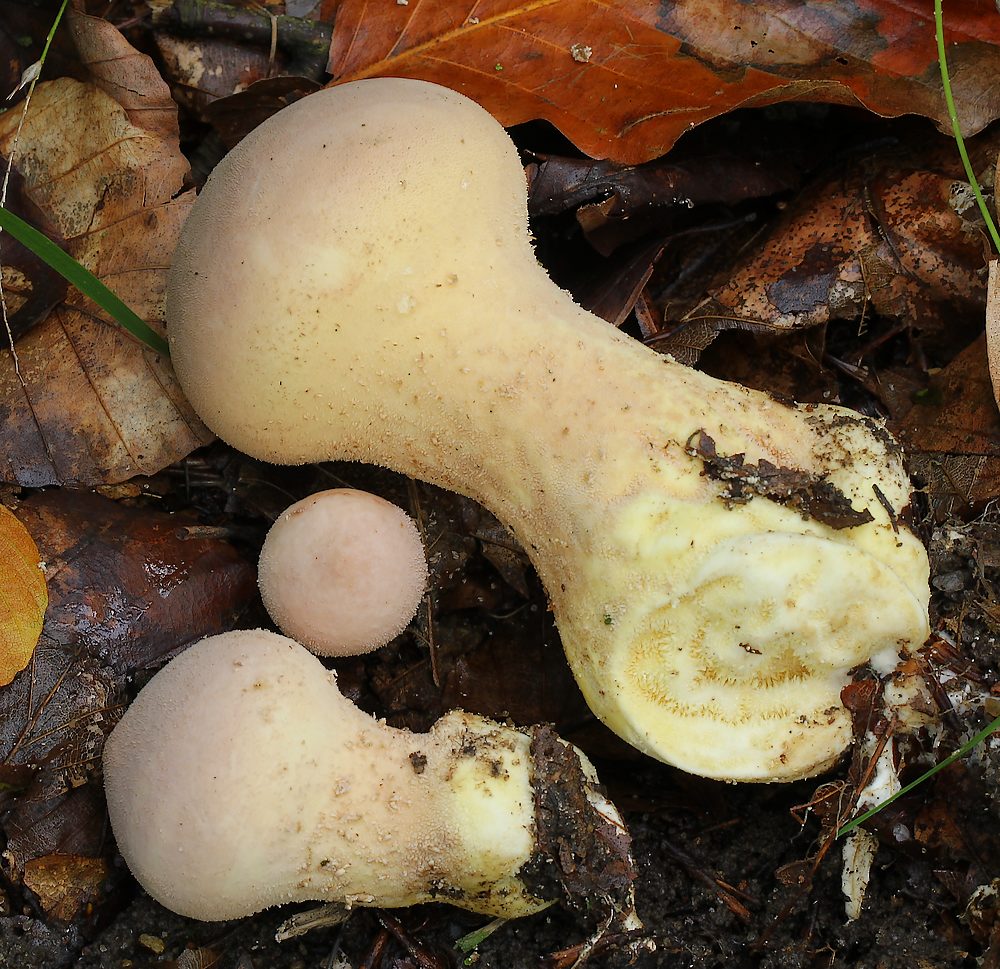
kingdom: Fungi
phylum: Basidiomycota
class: Agaricomycetes
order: Agaricales
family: Lycoperdaceae
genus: Lycoperdon
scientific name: Lycoperdon excipuliforme
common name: højstokket støvbold
